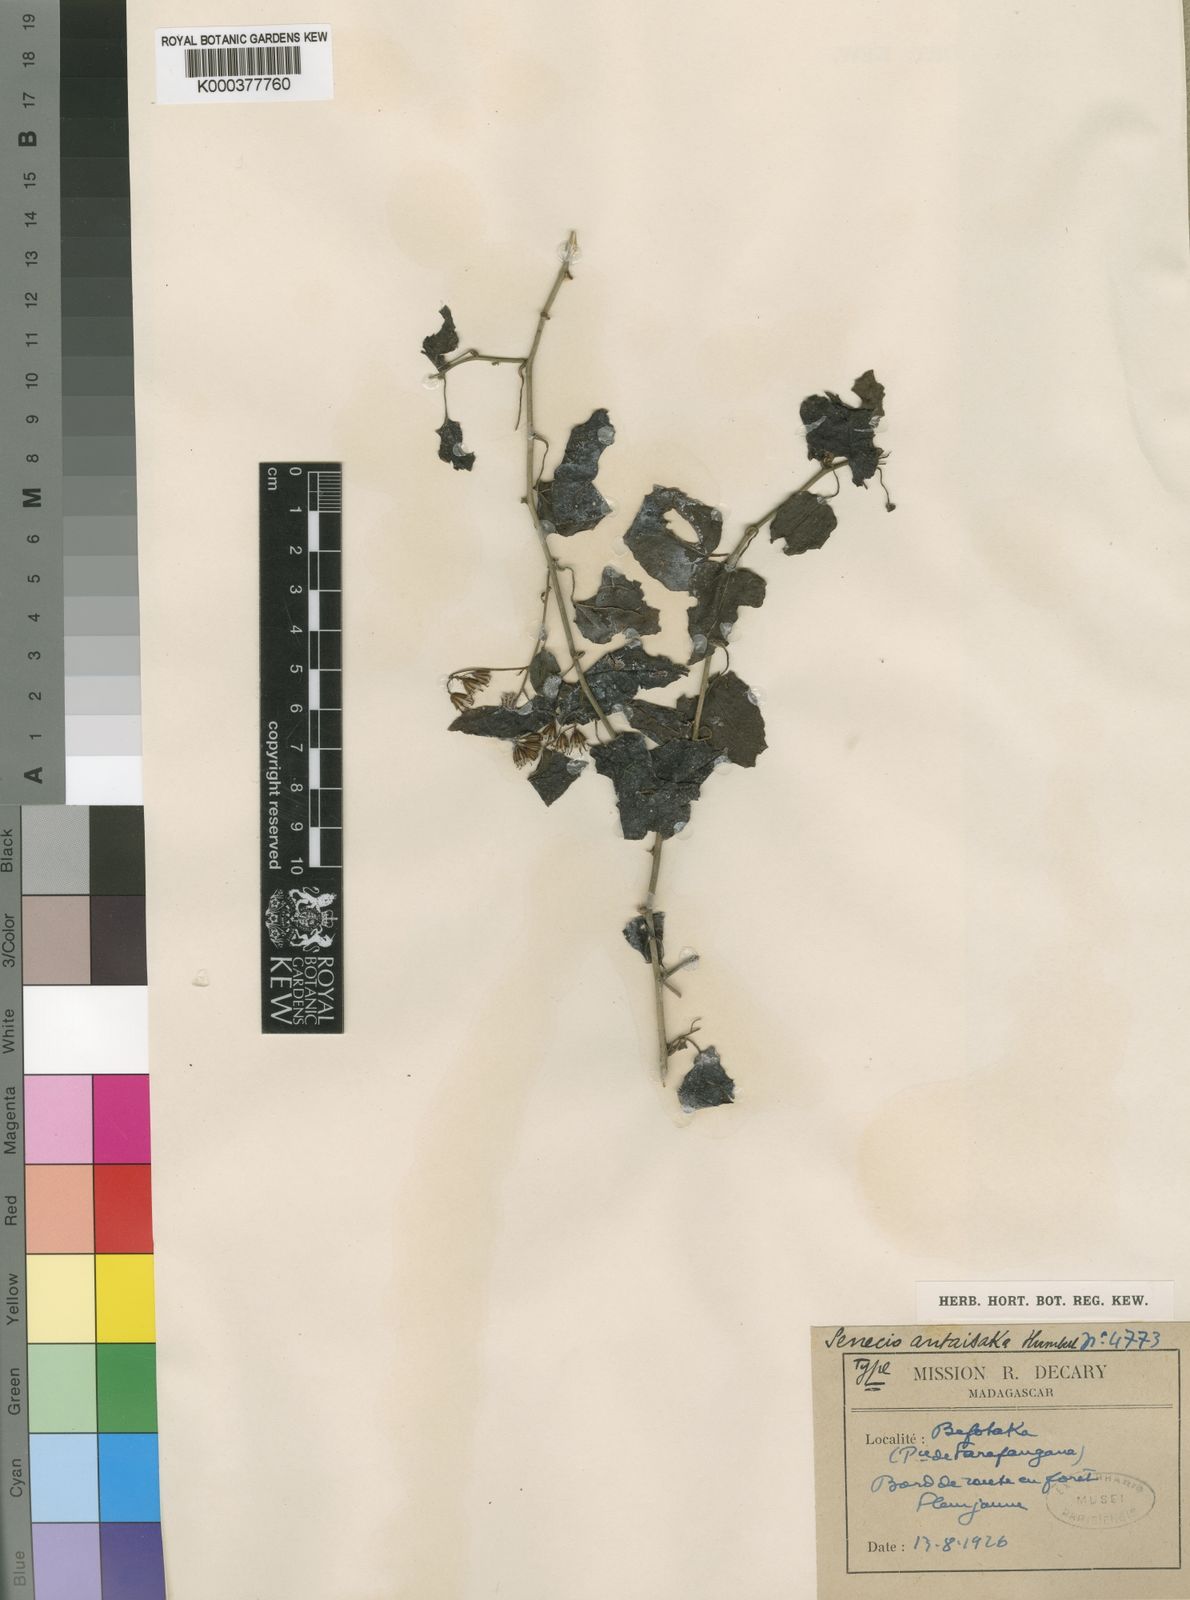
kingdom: Plantae
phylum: Tracheophyta
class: Magnoliopsida
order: Asterales
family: Asteraceae
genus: Senecio
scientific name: Senecio antaisaka
